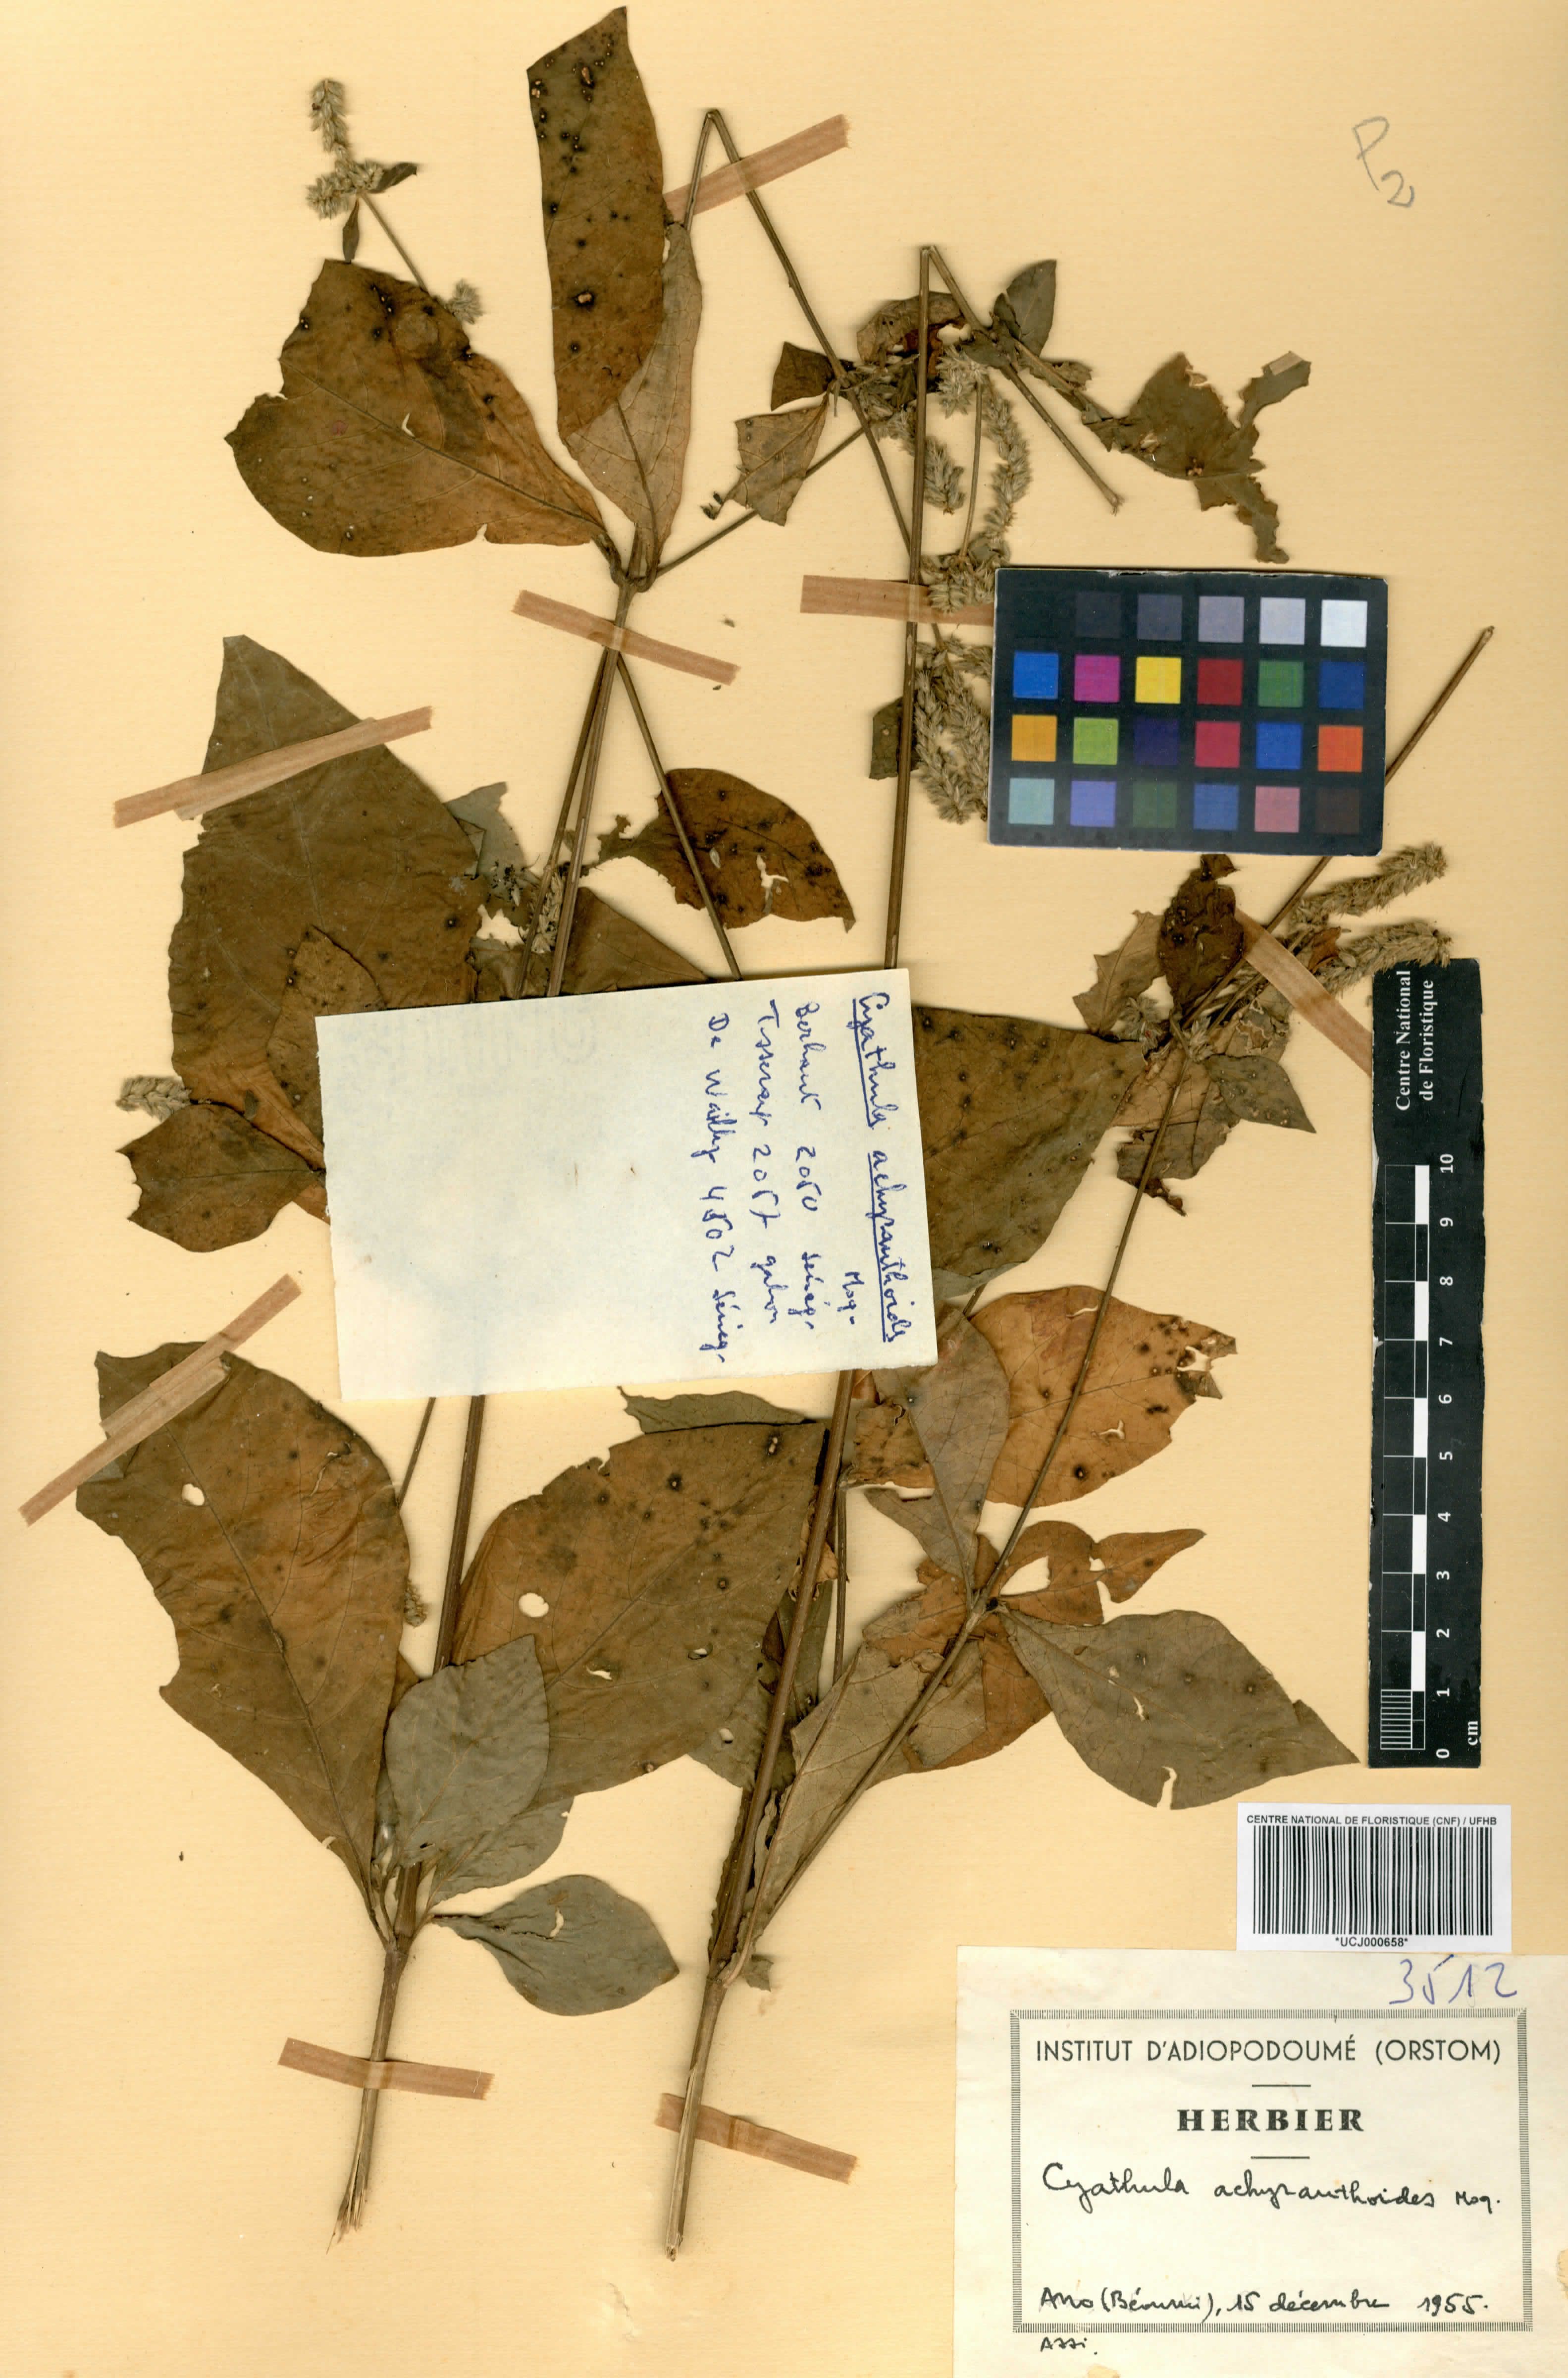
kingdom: Plantae
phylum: Tracheophyta
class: Magnoliopsida
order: Caryophyllales
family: Amaranthaceae
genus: Cyathula
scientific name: Cyathula achyranthoides
